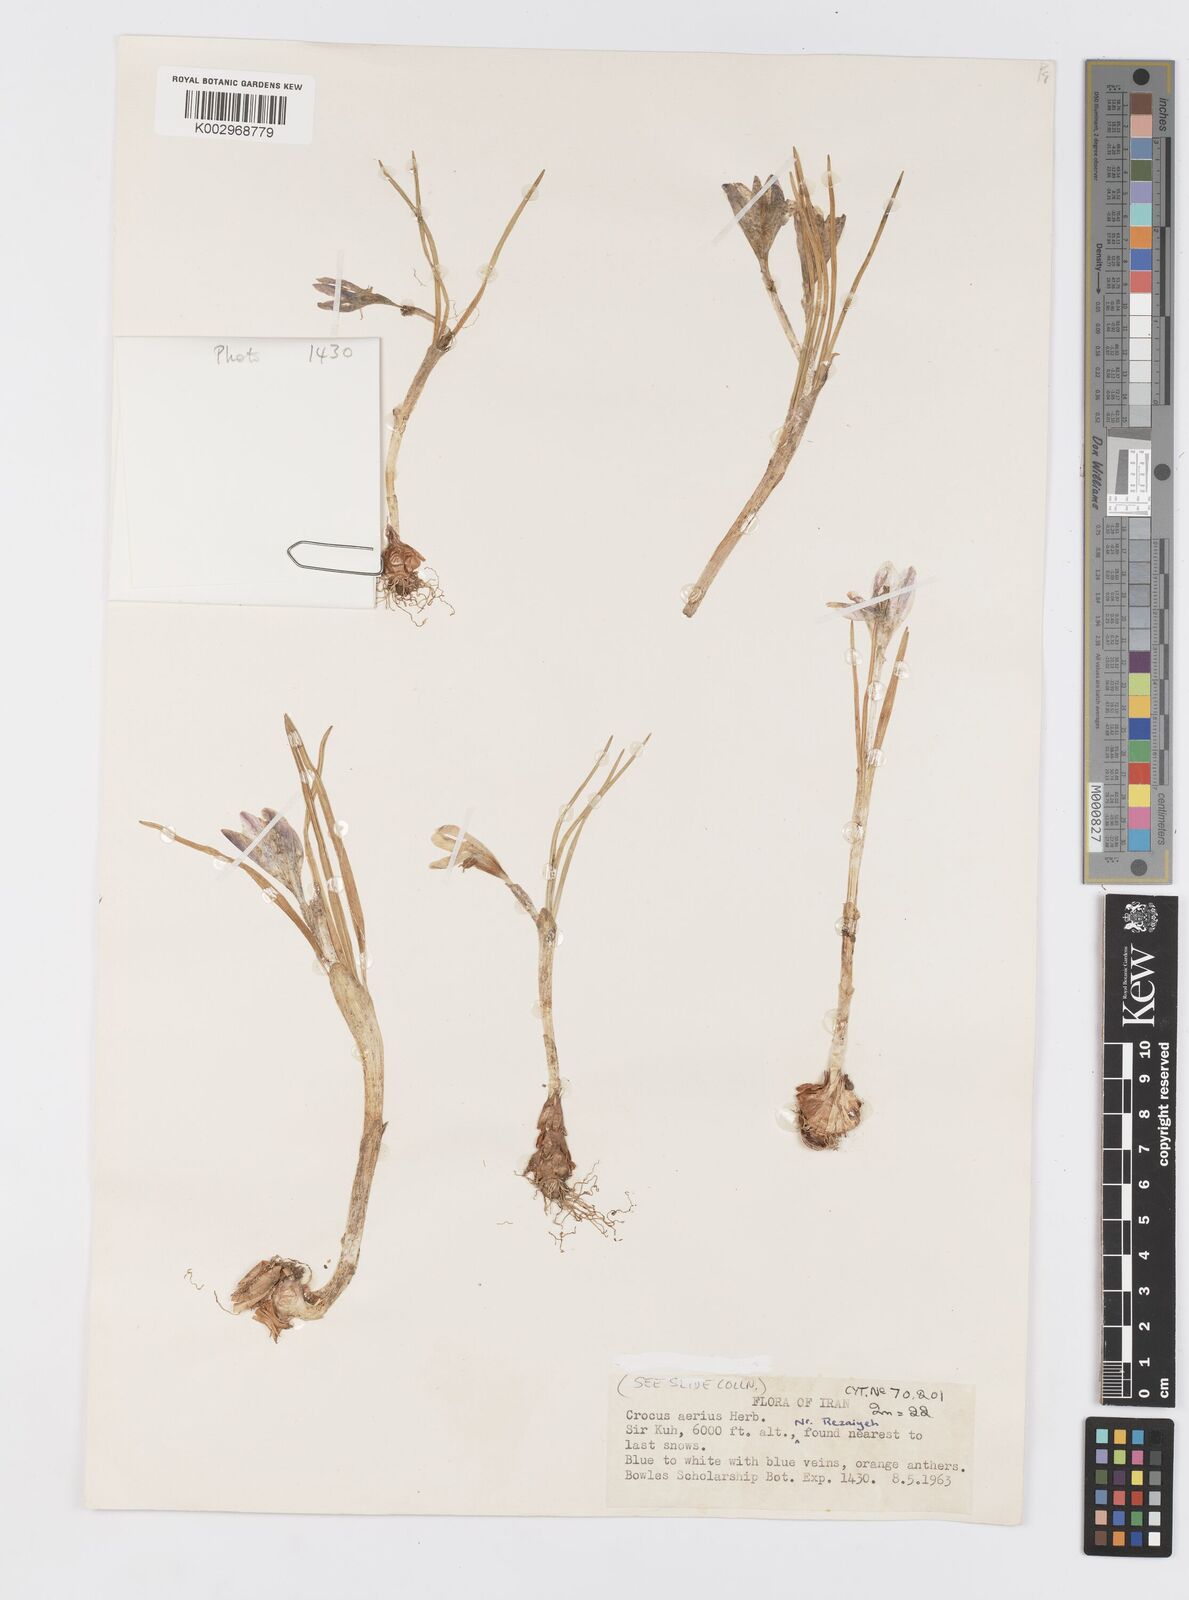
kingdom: Plantae
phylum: Tracheophyta
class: Liliopsida
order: Asparagales
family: Iridaceae
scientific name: Iridaceae
